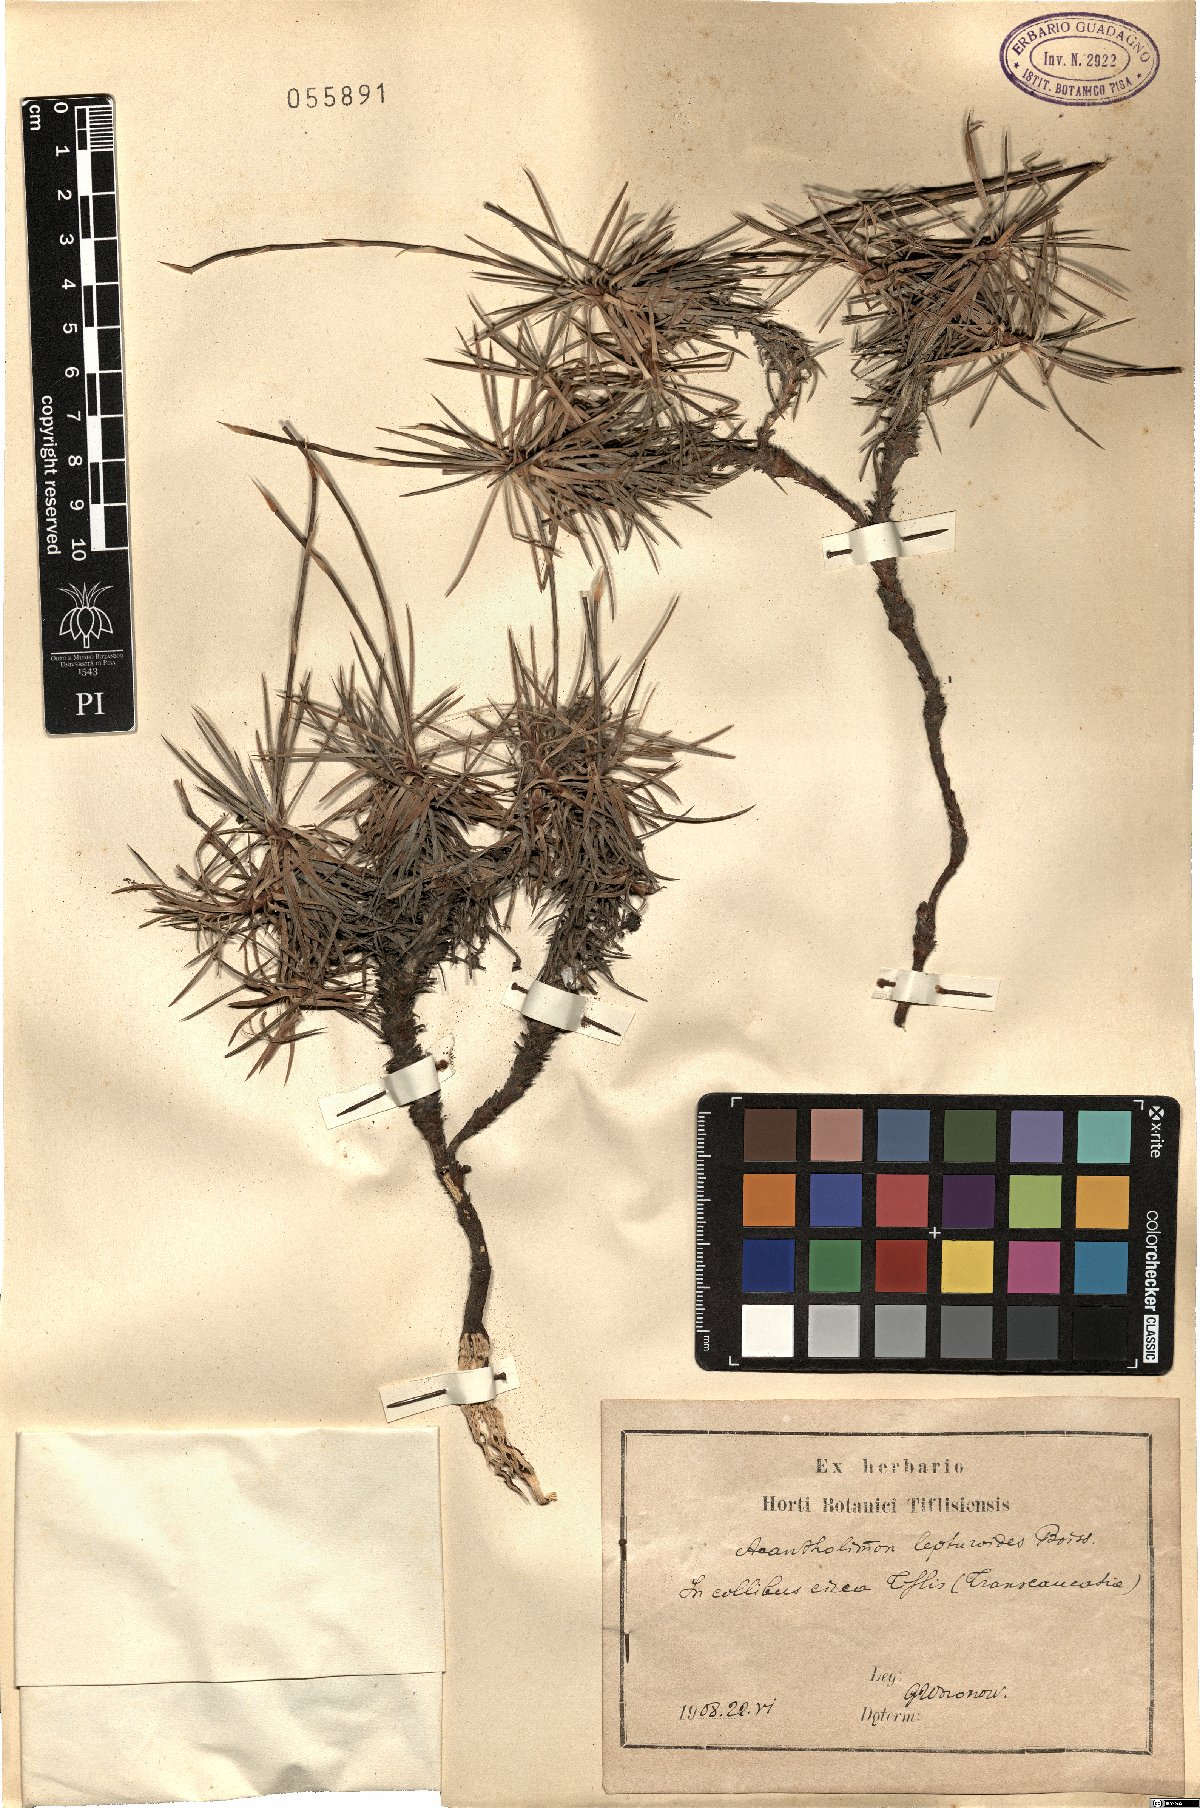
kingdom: Plantae
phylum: Tracheophyta
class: Magnoliopsida
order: Caryophyllales
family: Plumbaginaceae
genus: Acantholimon
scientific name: Acantholimon lepturoides
